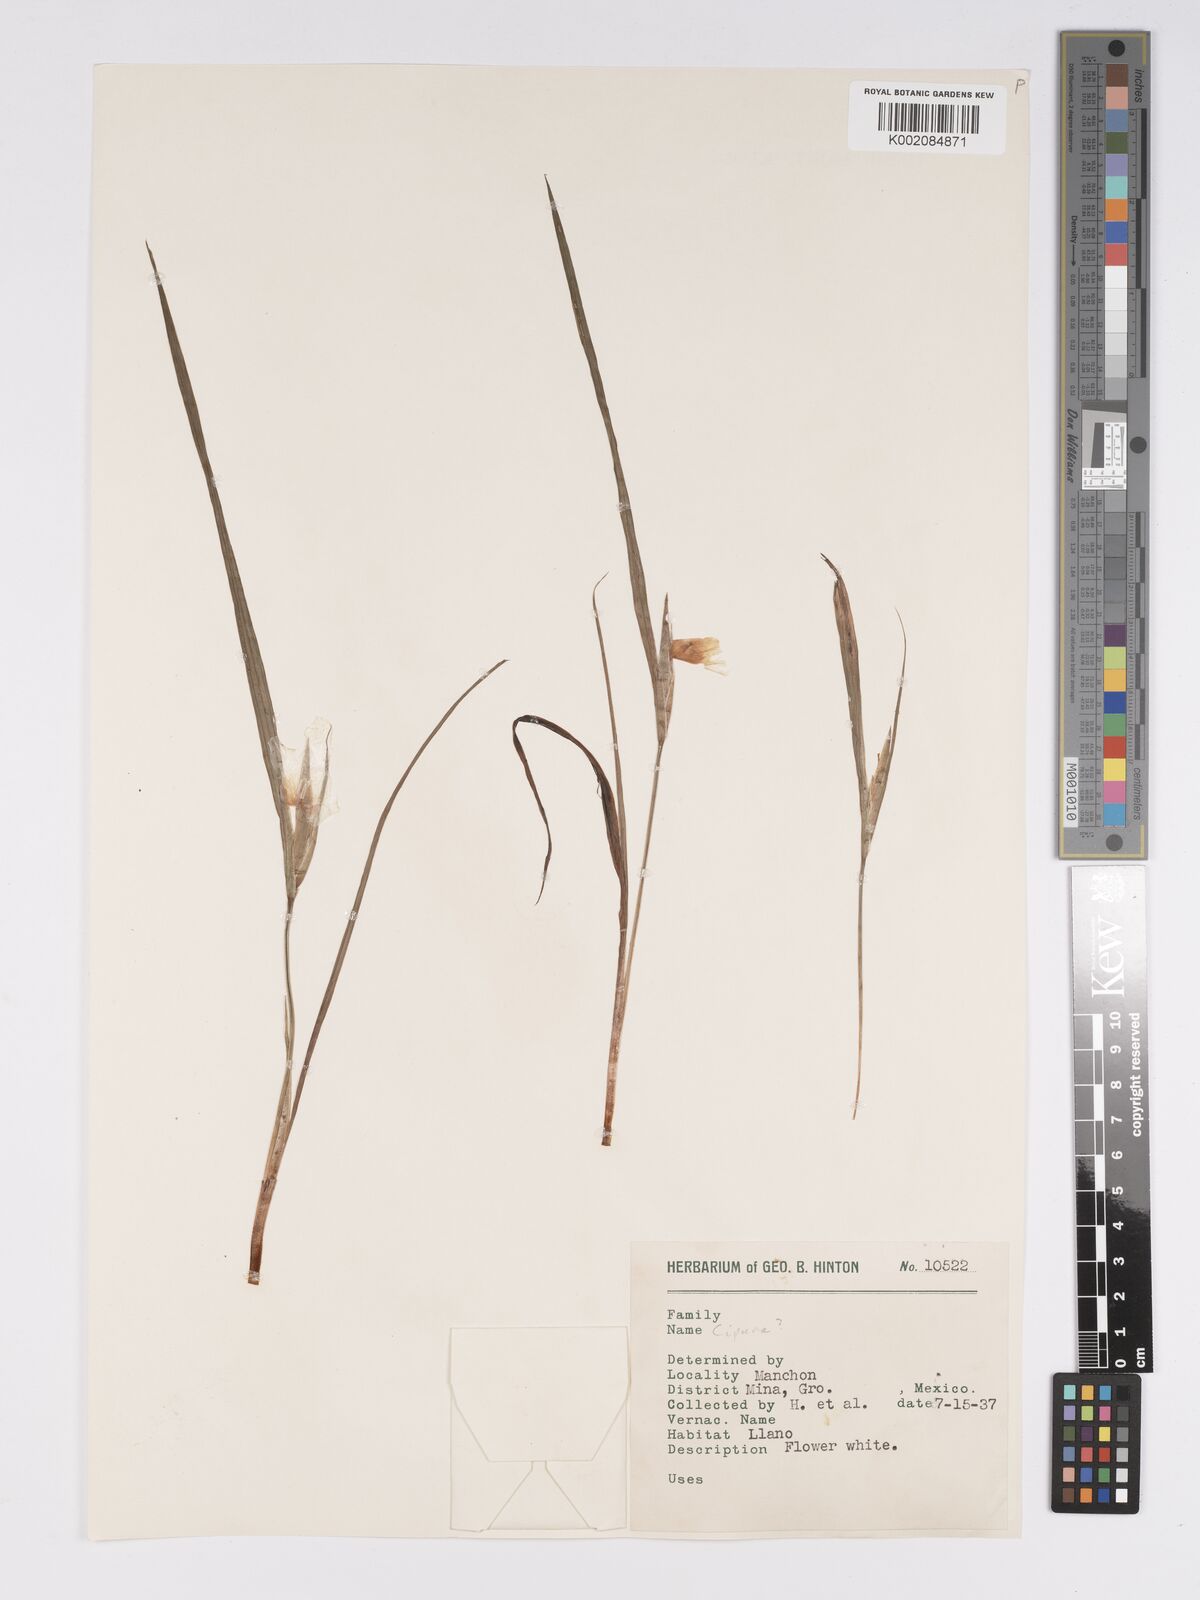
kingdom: Plantae
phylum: Tracheophyta
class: Liliopsida
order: Asparagales
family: Iridaceae
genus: Cipura
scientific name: Cipura
